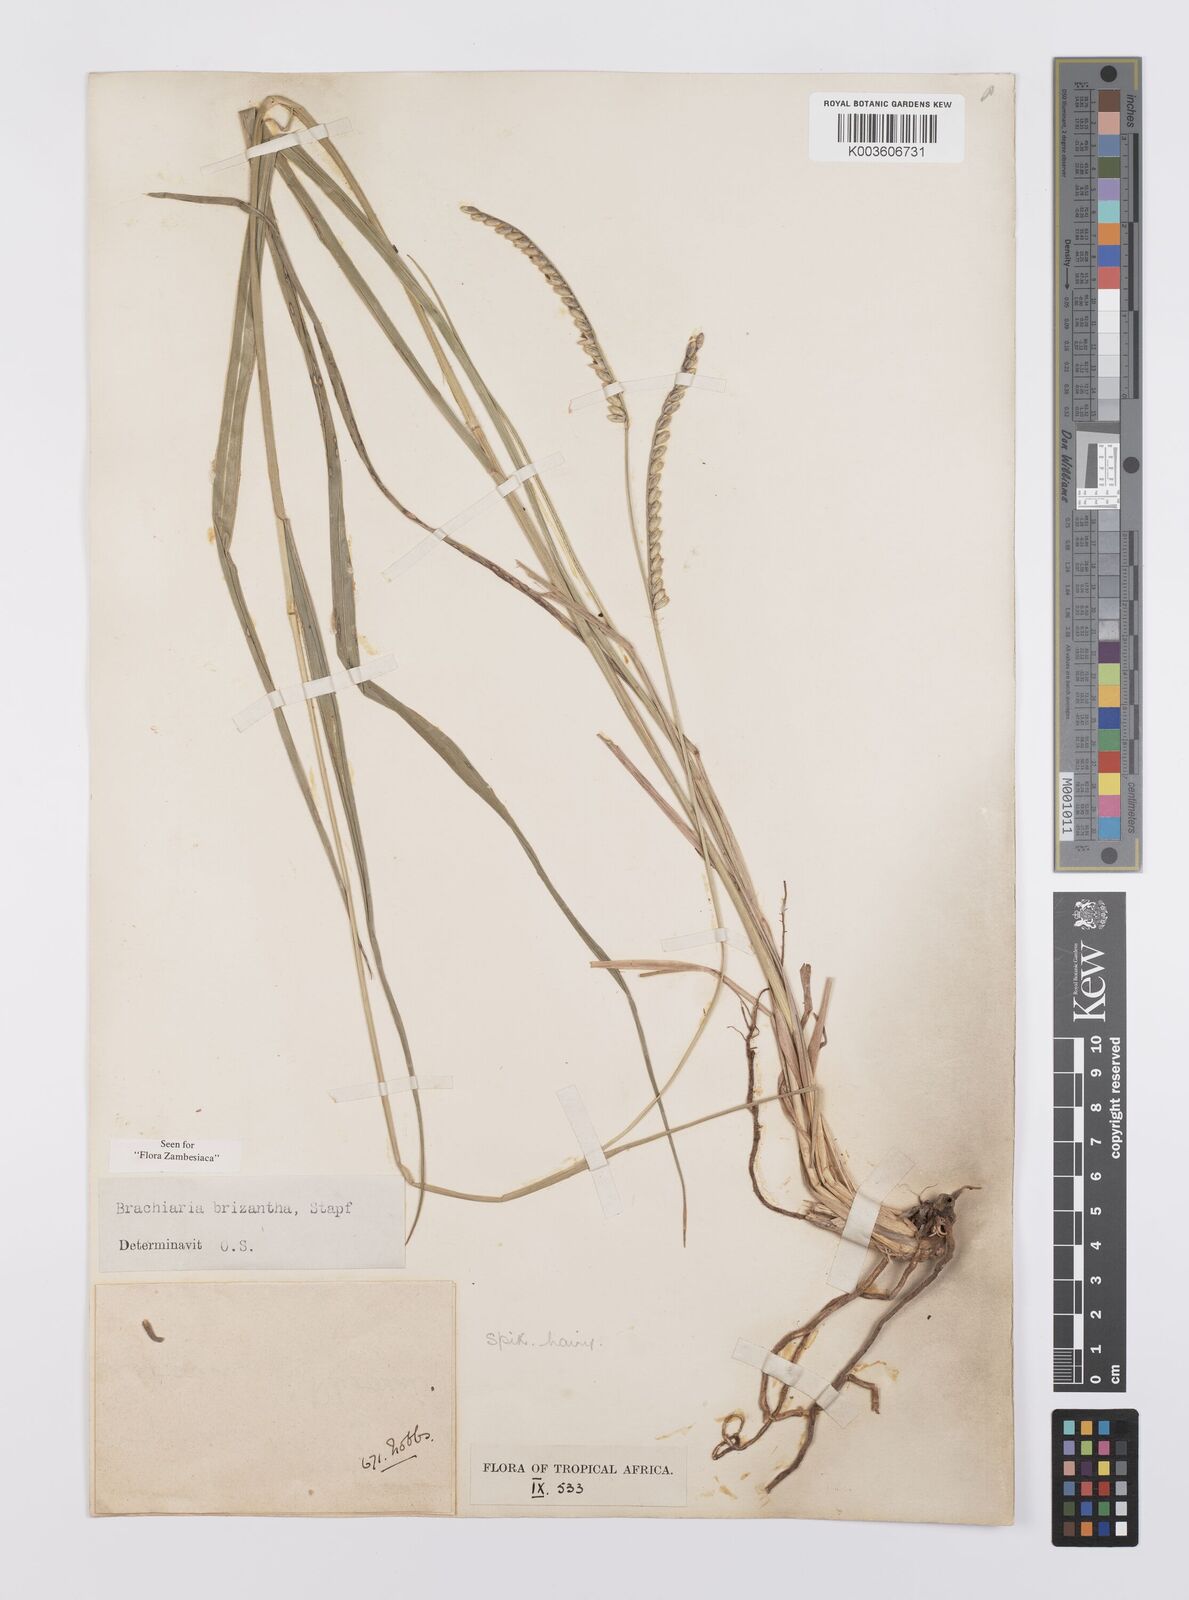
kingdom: Plantae
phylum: Tracheophyta
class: Liliopsida
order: Poales
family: Poaceae
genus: Urochloa
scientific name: Urochloa brizantha
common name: Palisade signalgrass
